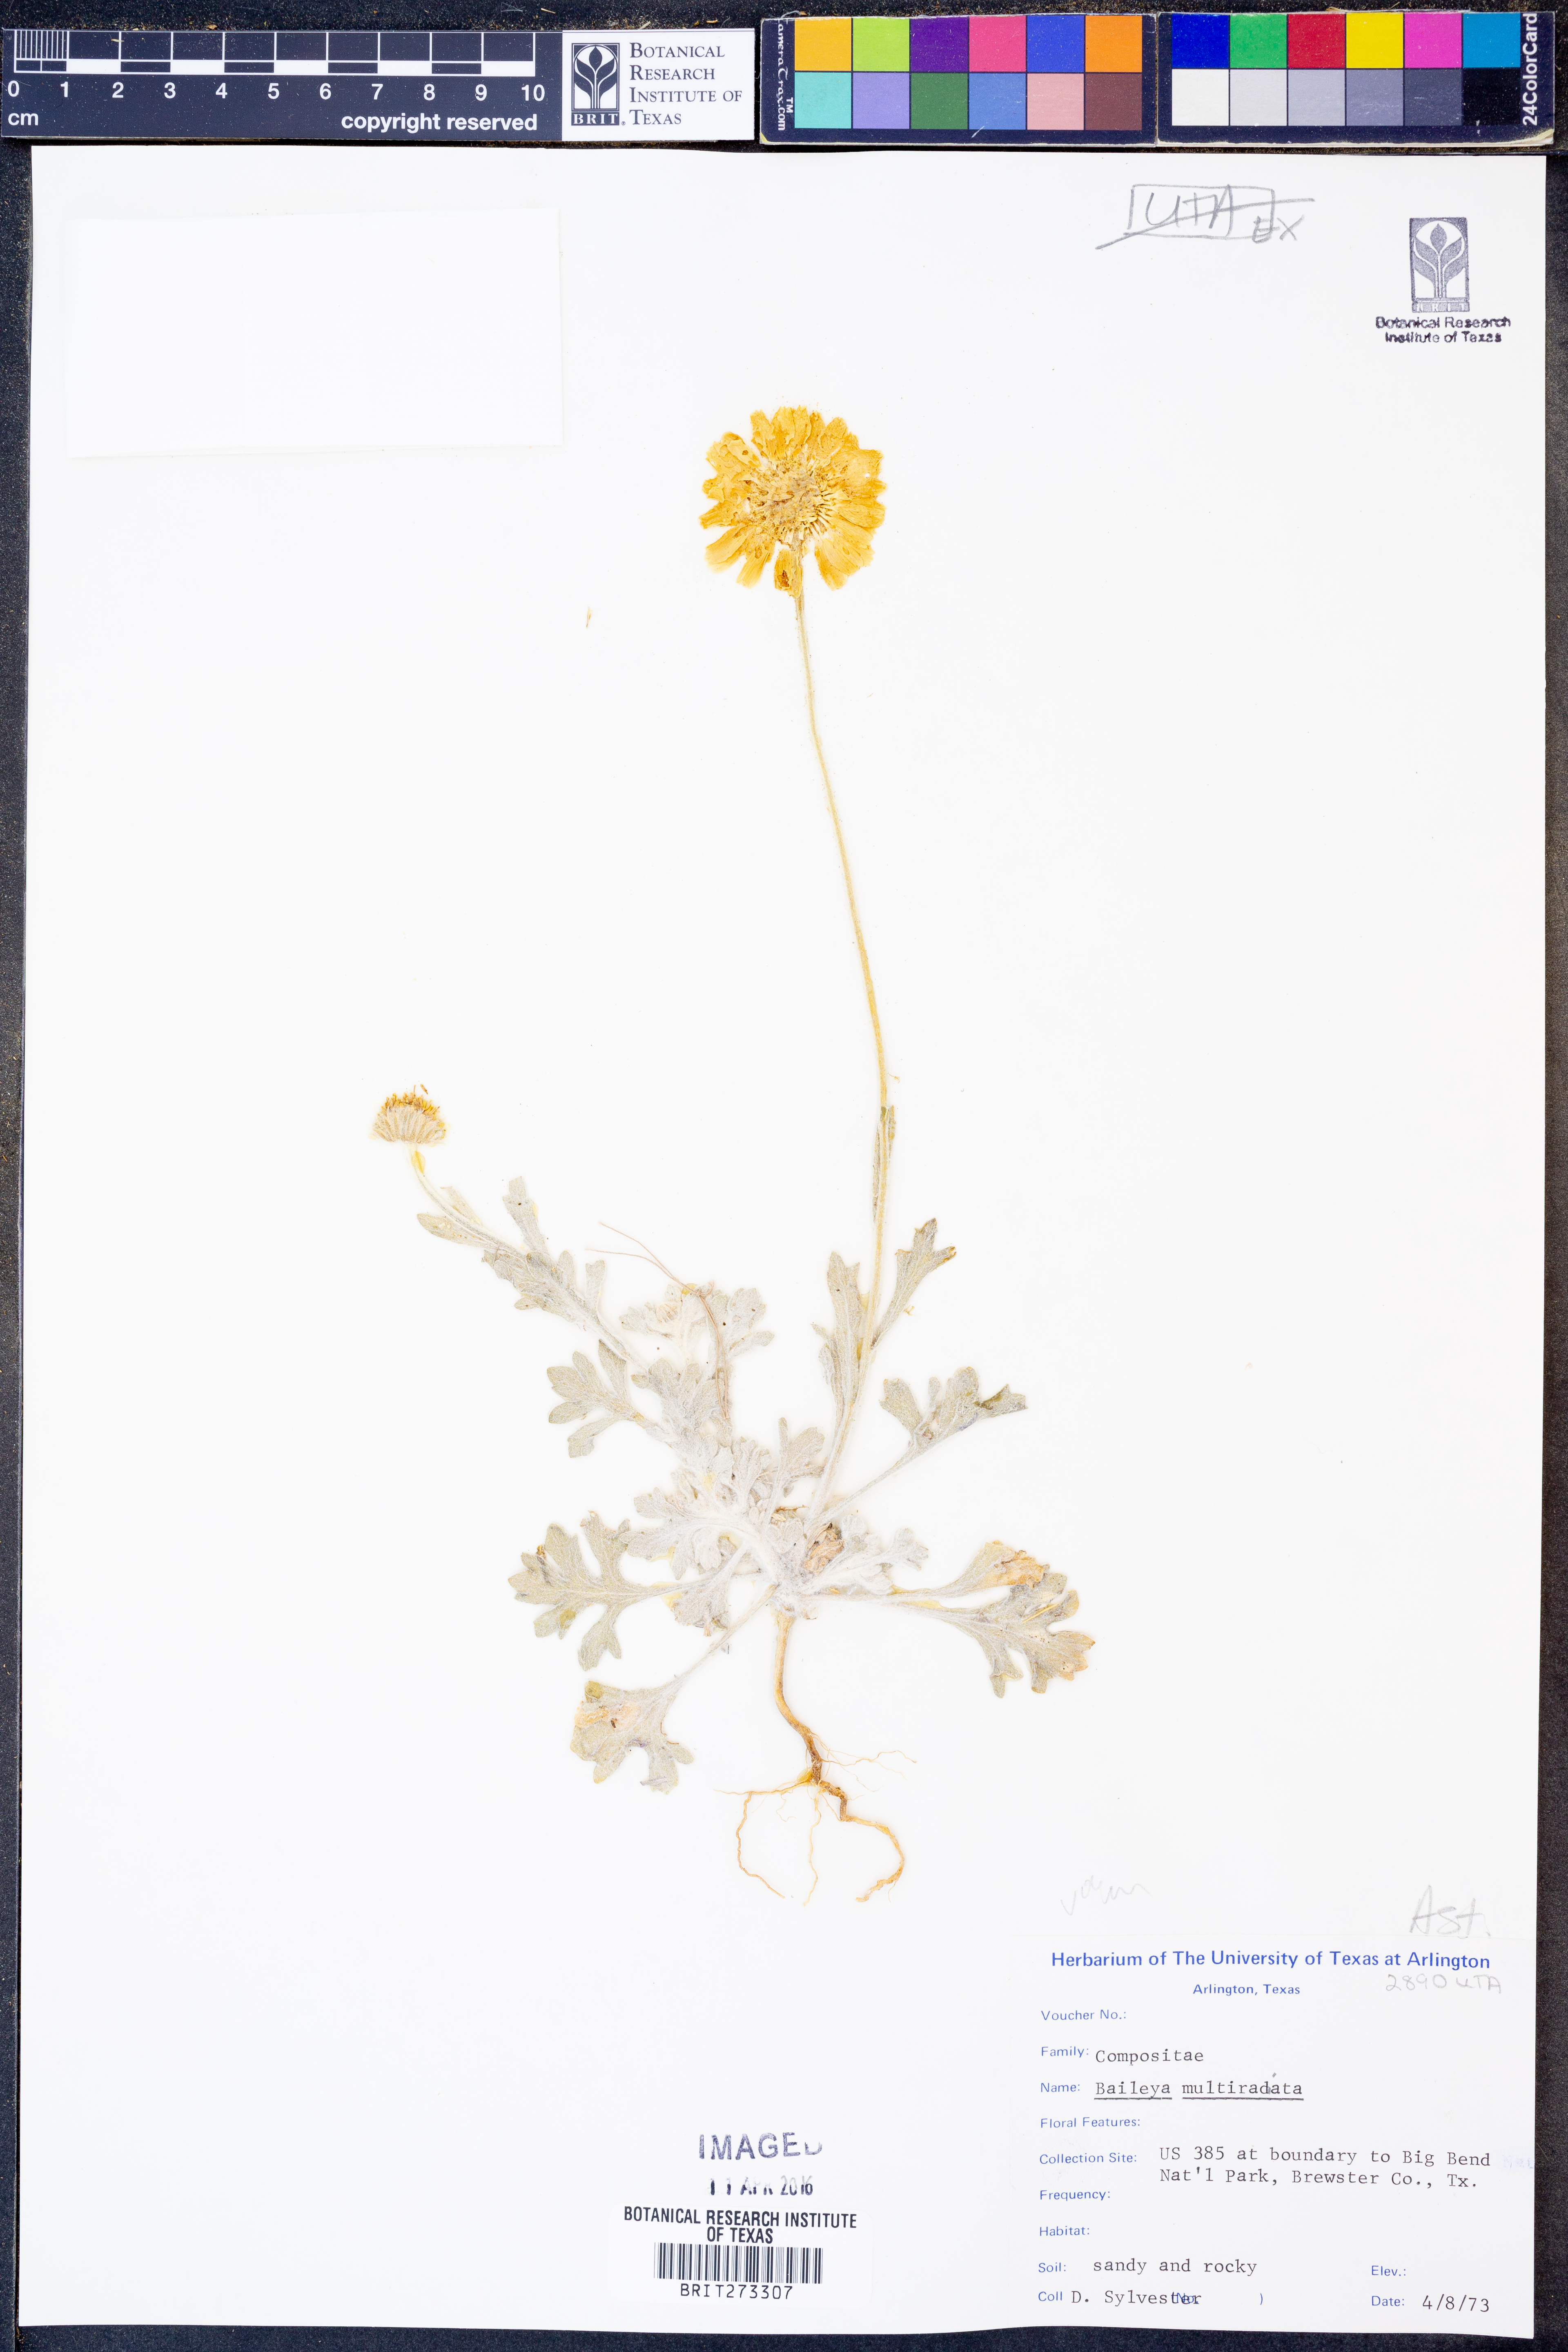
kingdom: Plantae
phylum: Tracheophyta
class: Magnoliopsida
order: Asterales
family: Asteraceae
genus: Baileya
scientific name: Baileya multiradiata
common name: Desert-marigold
